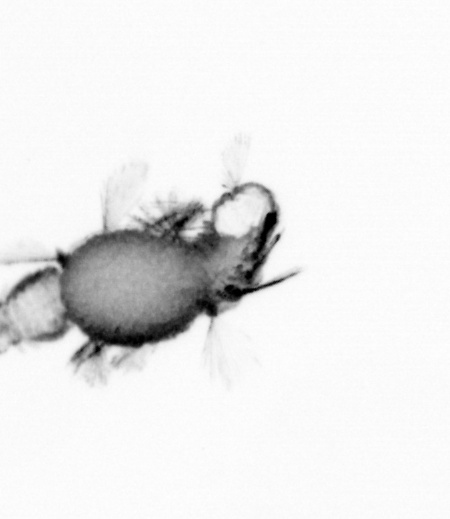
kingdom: Animalia
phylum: Annelida
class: Polychaeta
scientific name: Polychaeta
